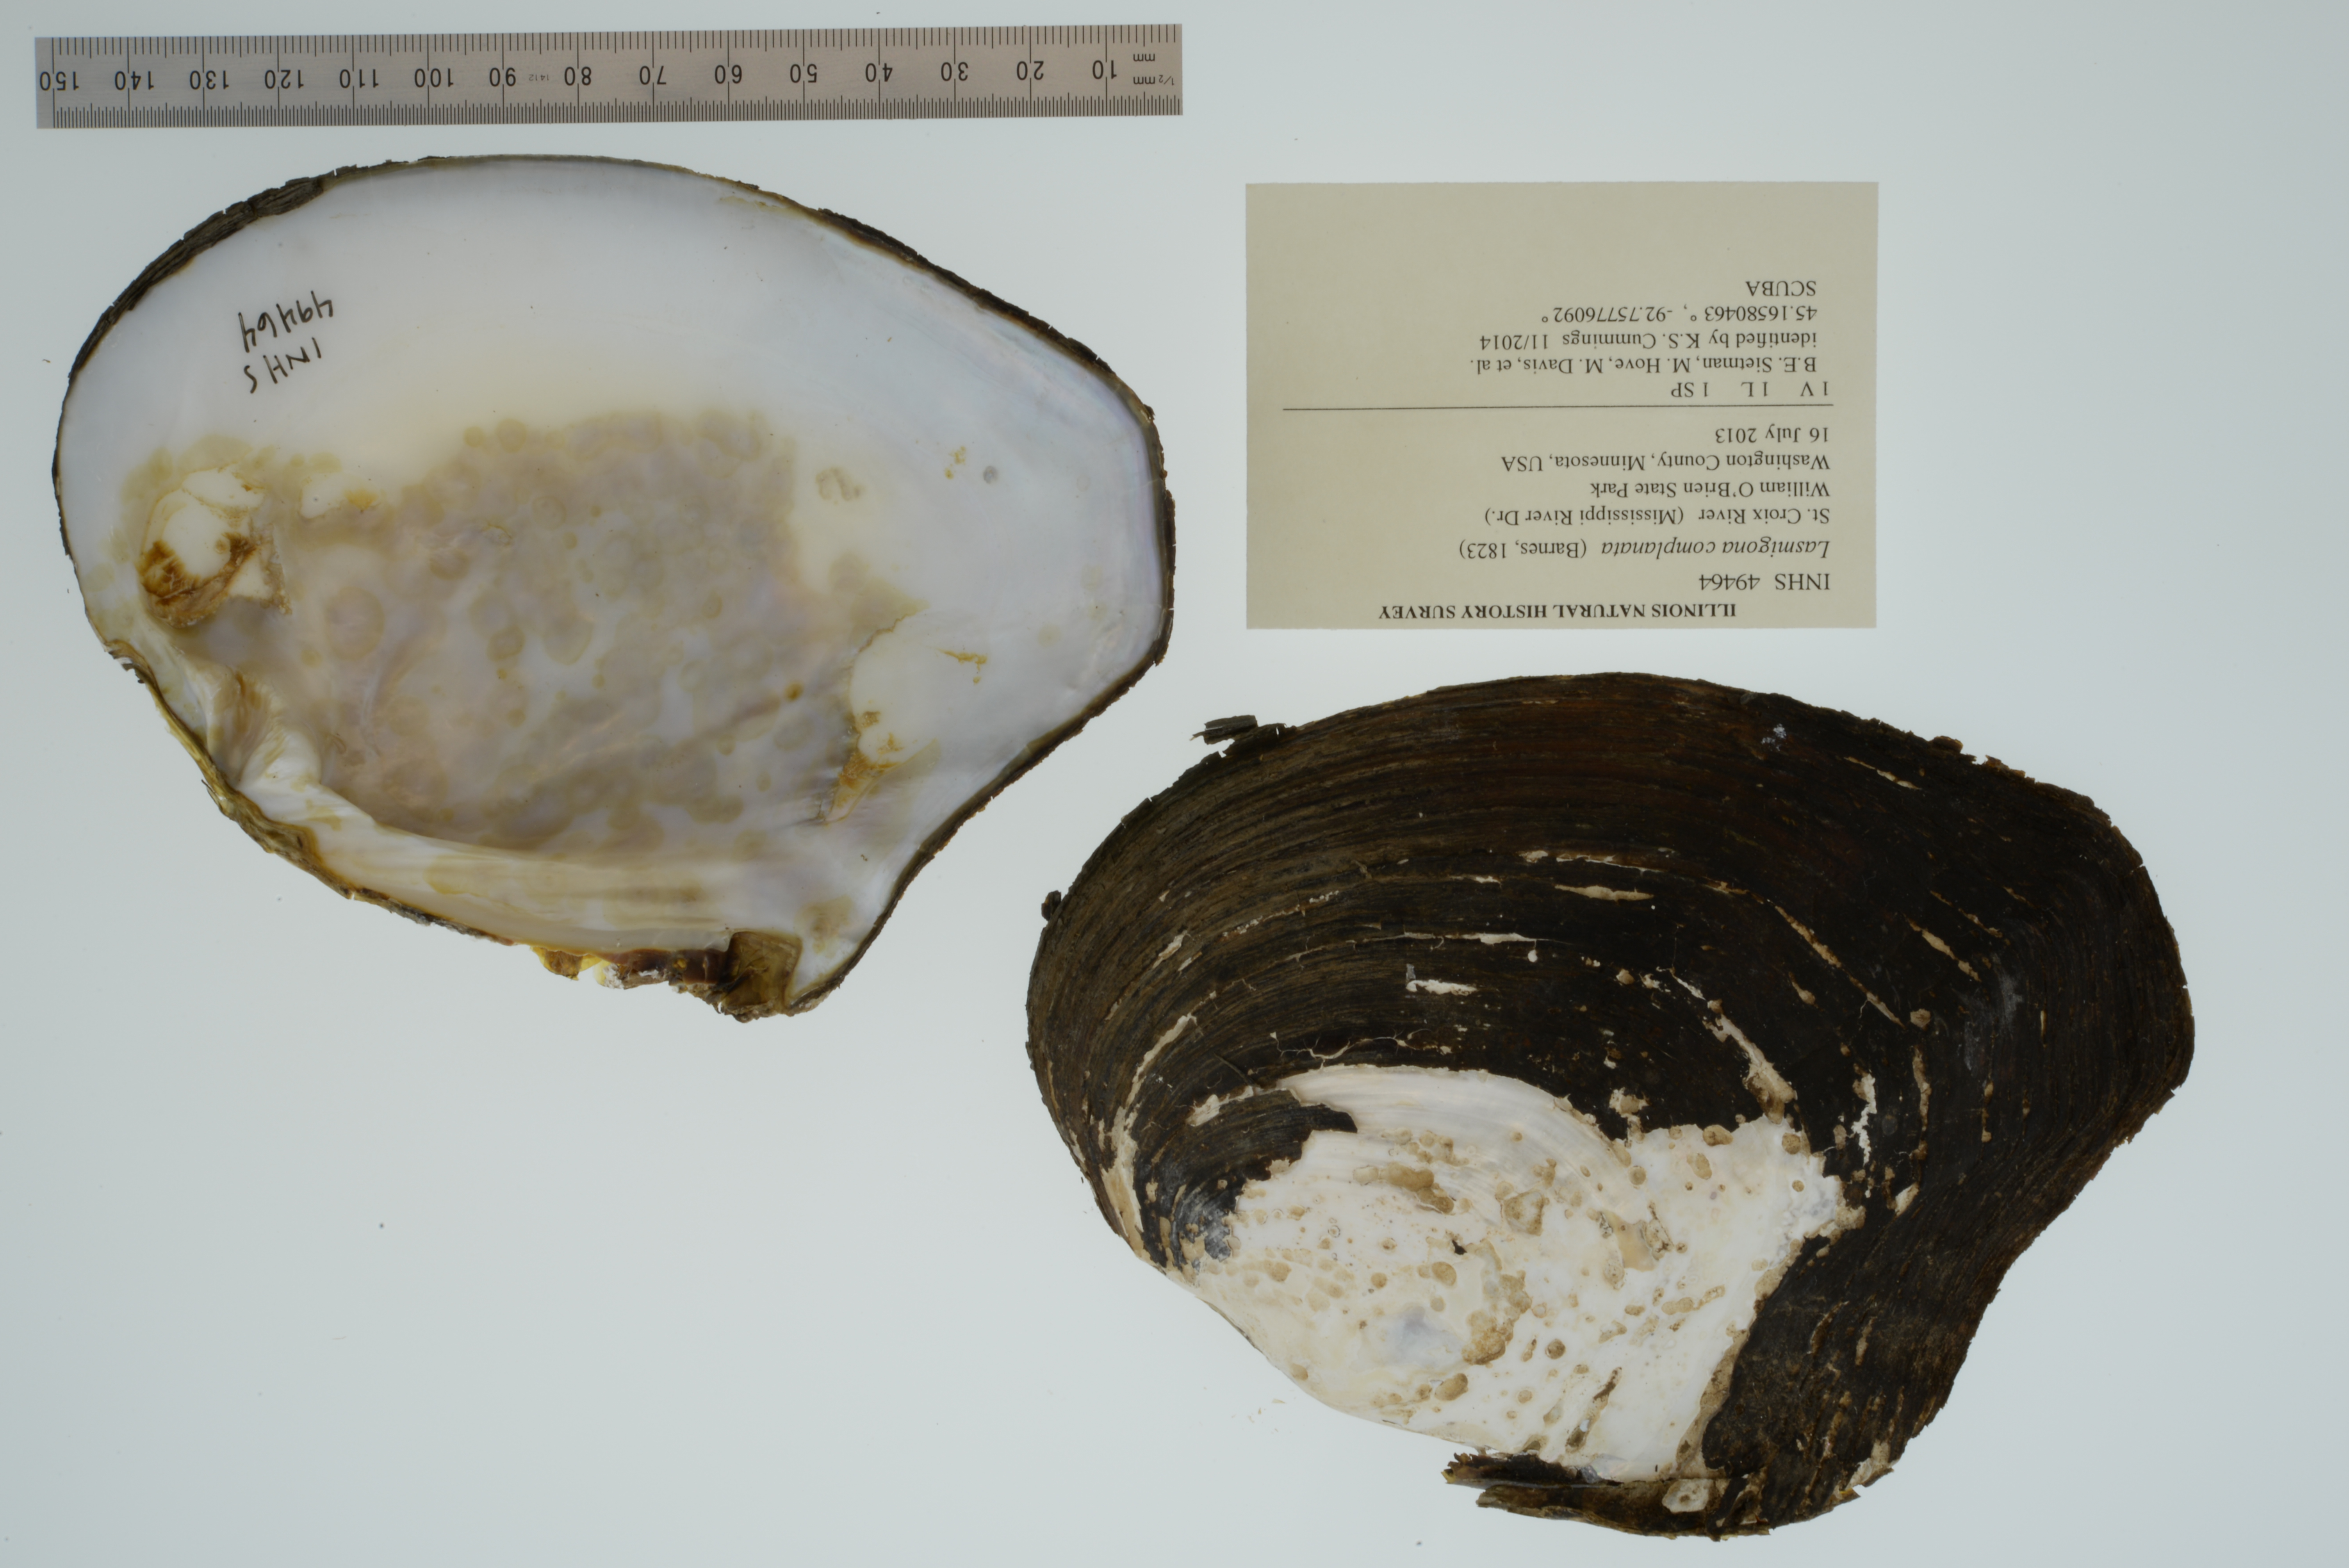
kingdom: Animalia
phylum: Mollusca
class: Bivalvia
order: Unionida
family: Unionidae
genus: Lasmigona
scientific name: Lasmigona complanata
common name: White heelsplitter
